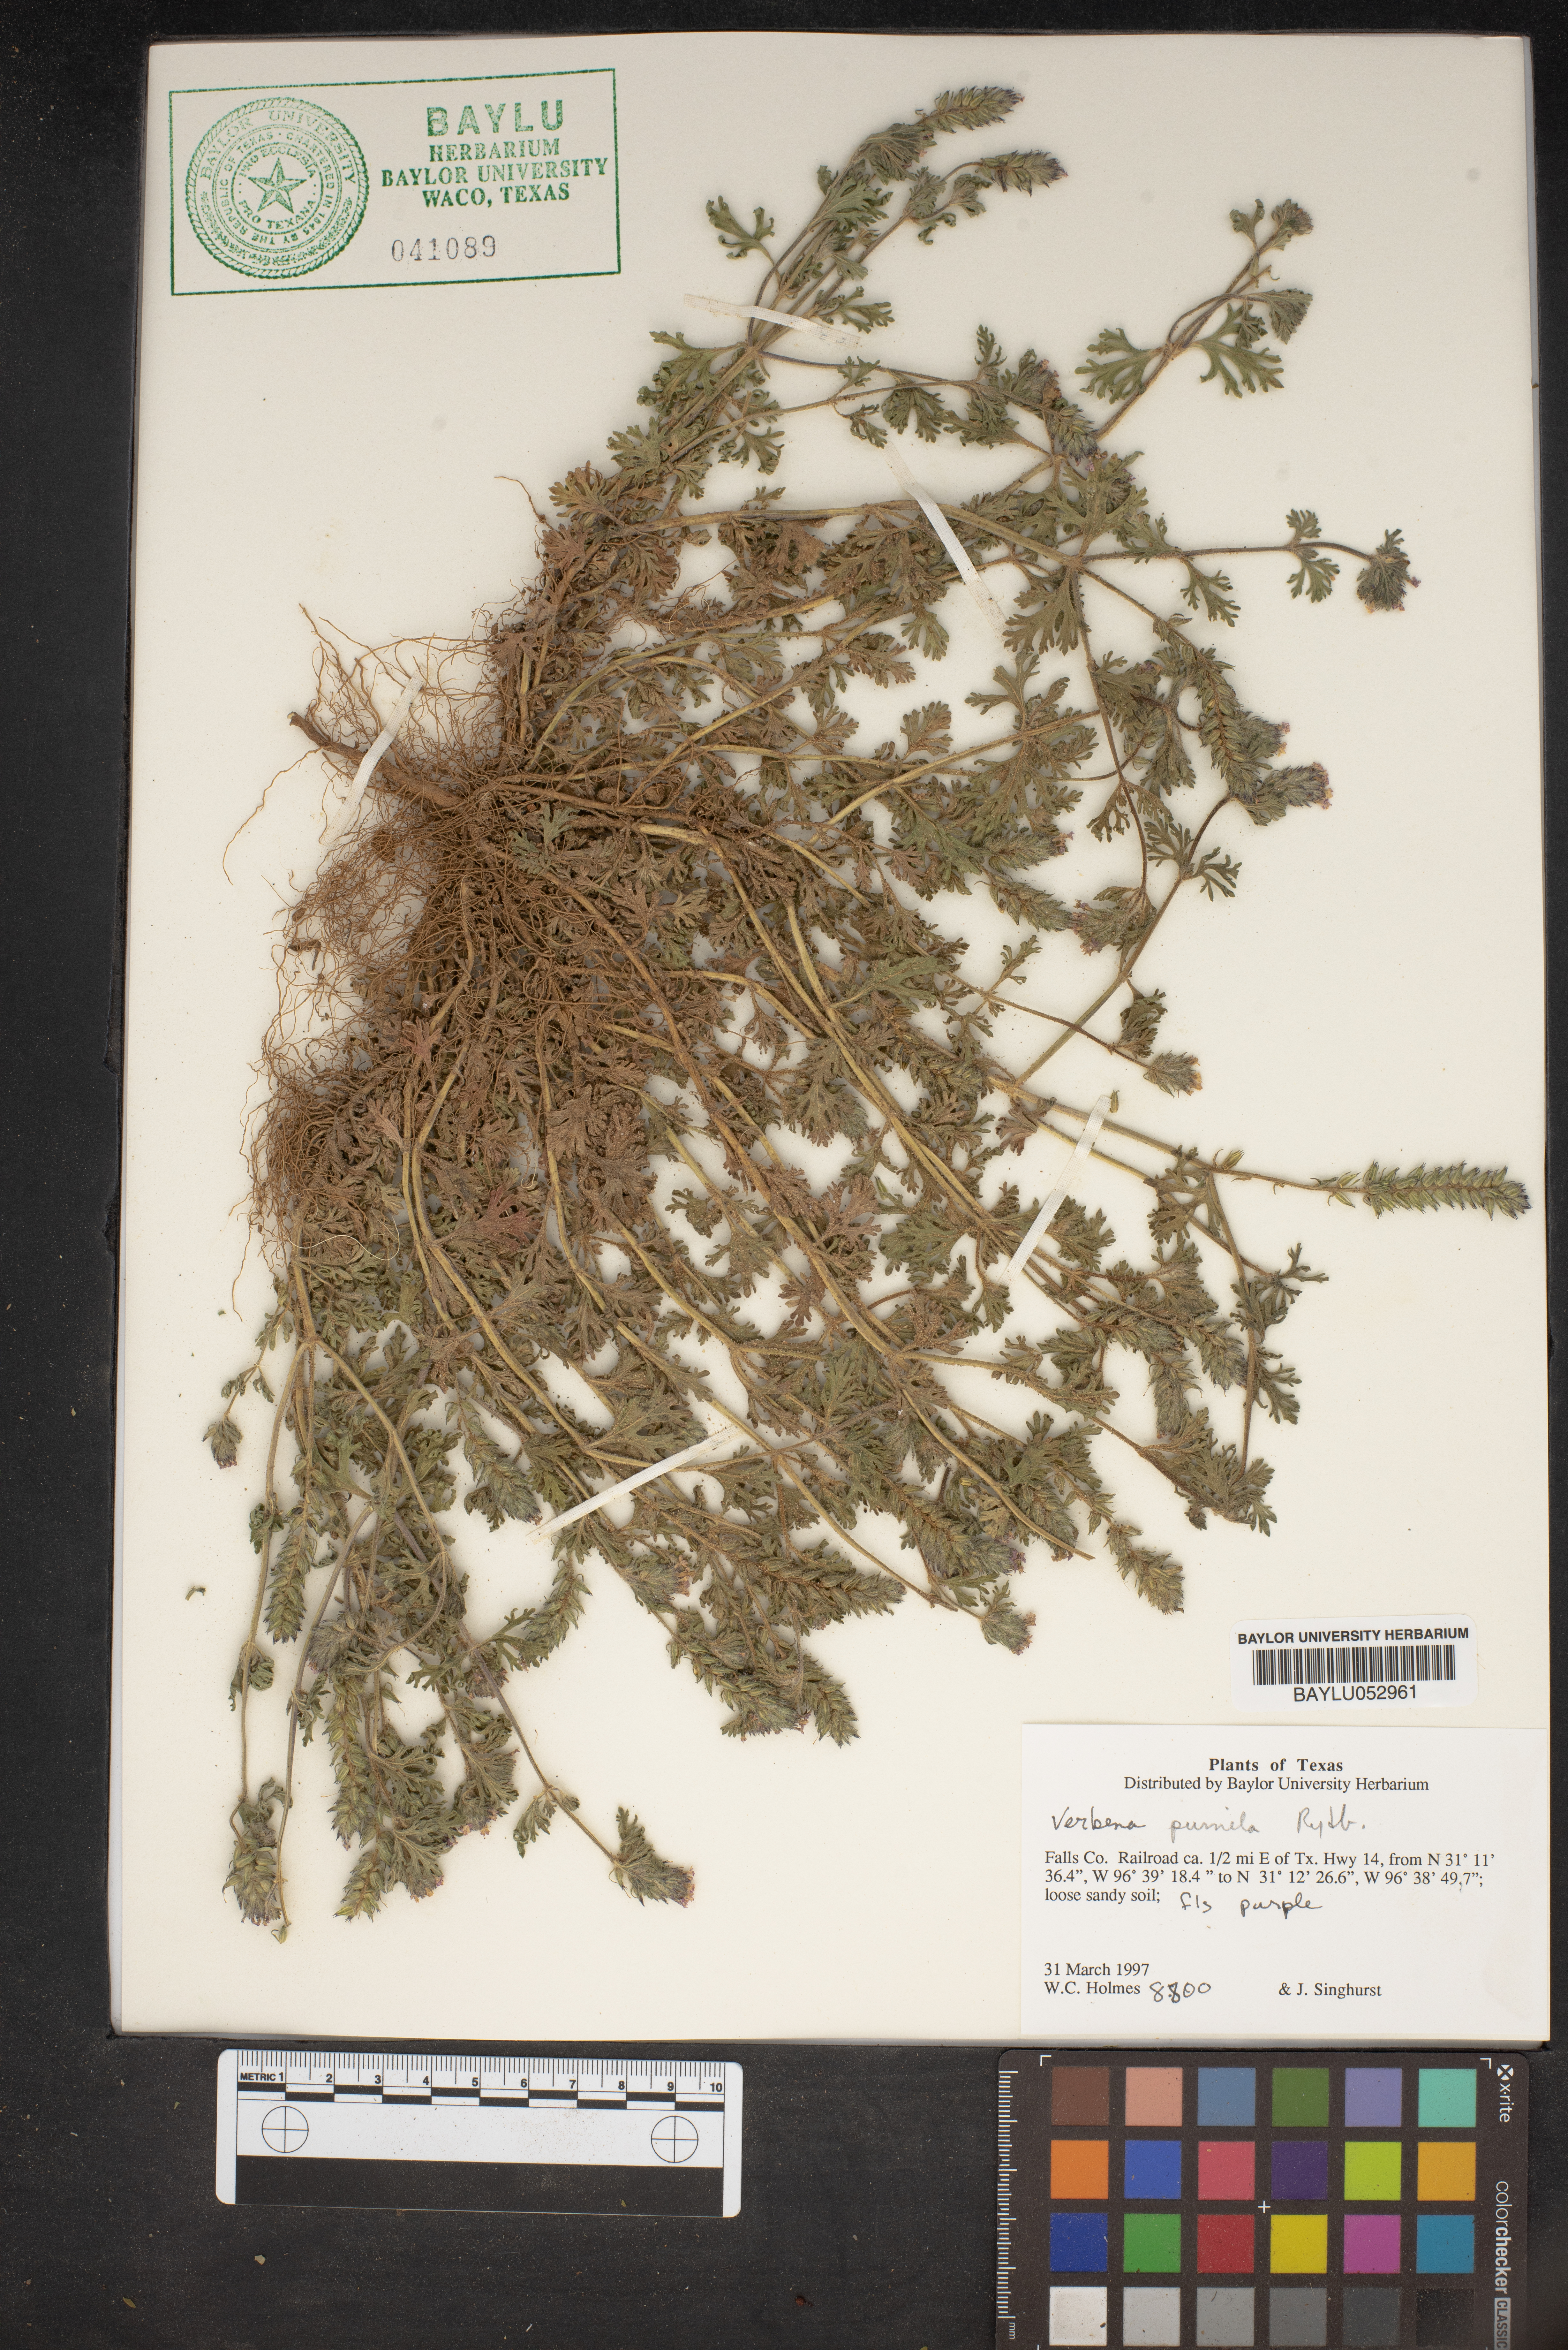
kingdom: Plantae
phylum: Tracheophyta
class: Magnoliopsida
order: Lamiales
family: Verbenaceae
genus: Verbena
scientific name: Verbena pumila
